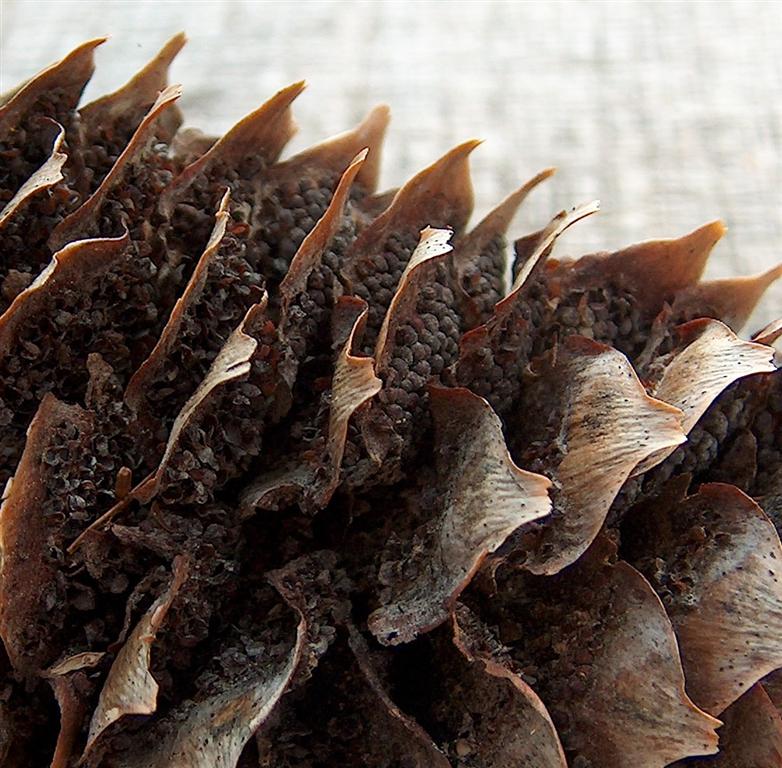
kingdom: Fungi
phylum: Basidiomycota
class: Pucciniomycetes
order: Pucciniales
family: Pucciniastraceae
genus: Thekopsora
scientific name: Thekopsora areolata
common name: grankogle-nålerust
